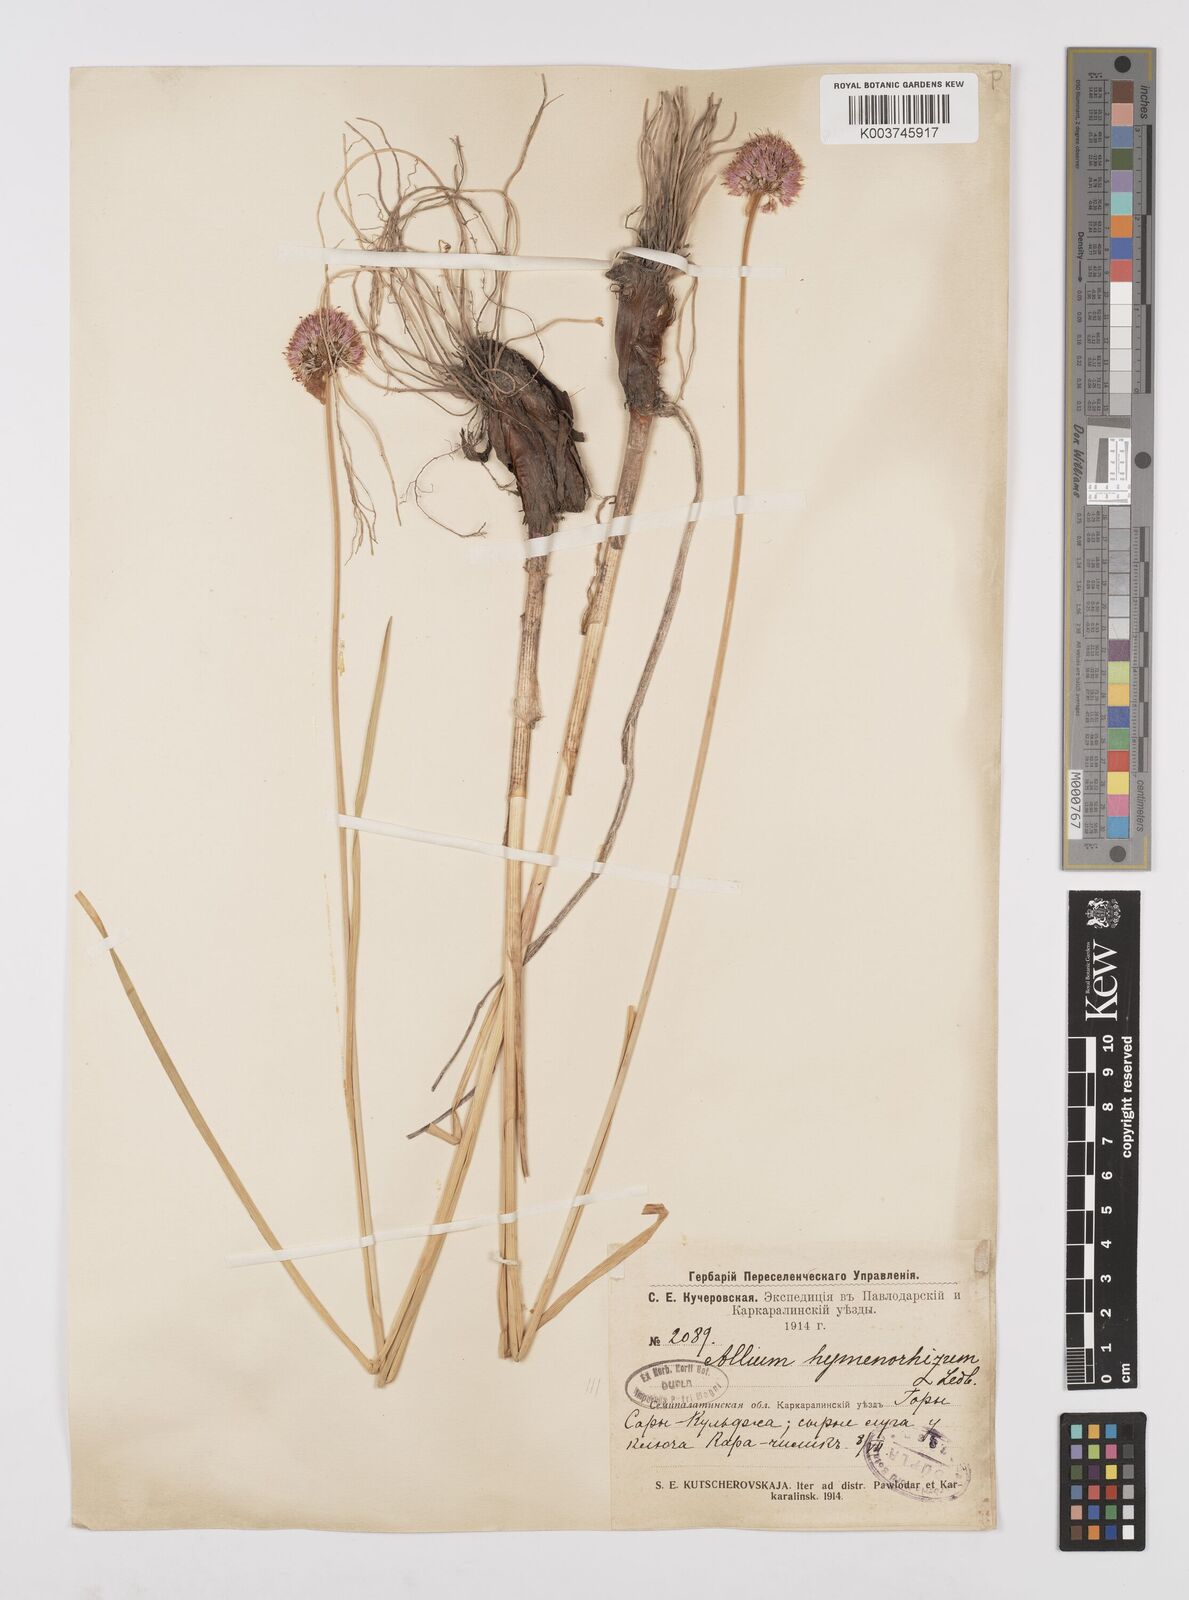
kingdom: Plantae
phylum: Tracheophyta
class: Liliopsida
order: Asparagales
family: Amaryllidaceae
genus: Allium
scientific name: Allium hymenorhizum
